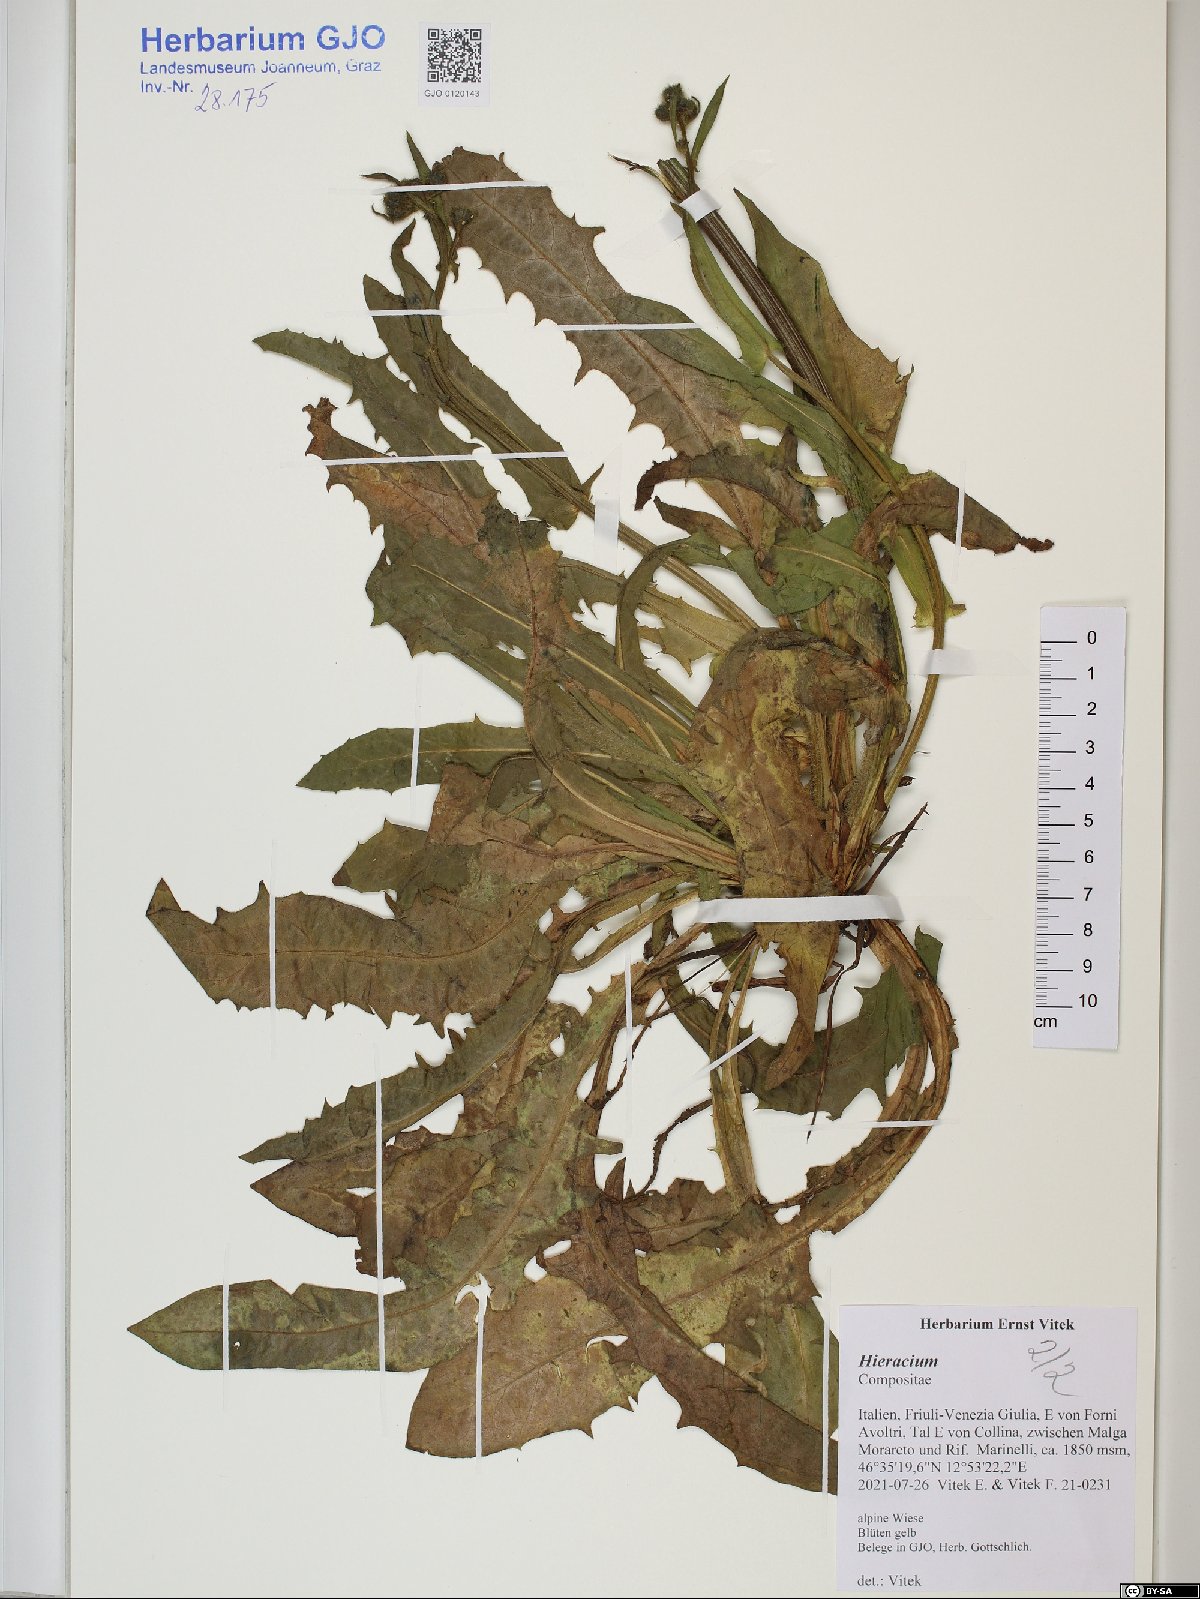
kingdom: Plantae
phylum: Tracheophyta
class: Magnoliopsida
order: Asterales
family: Asteraceae
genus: Hieracium
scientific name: Hieracium
